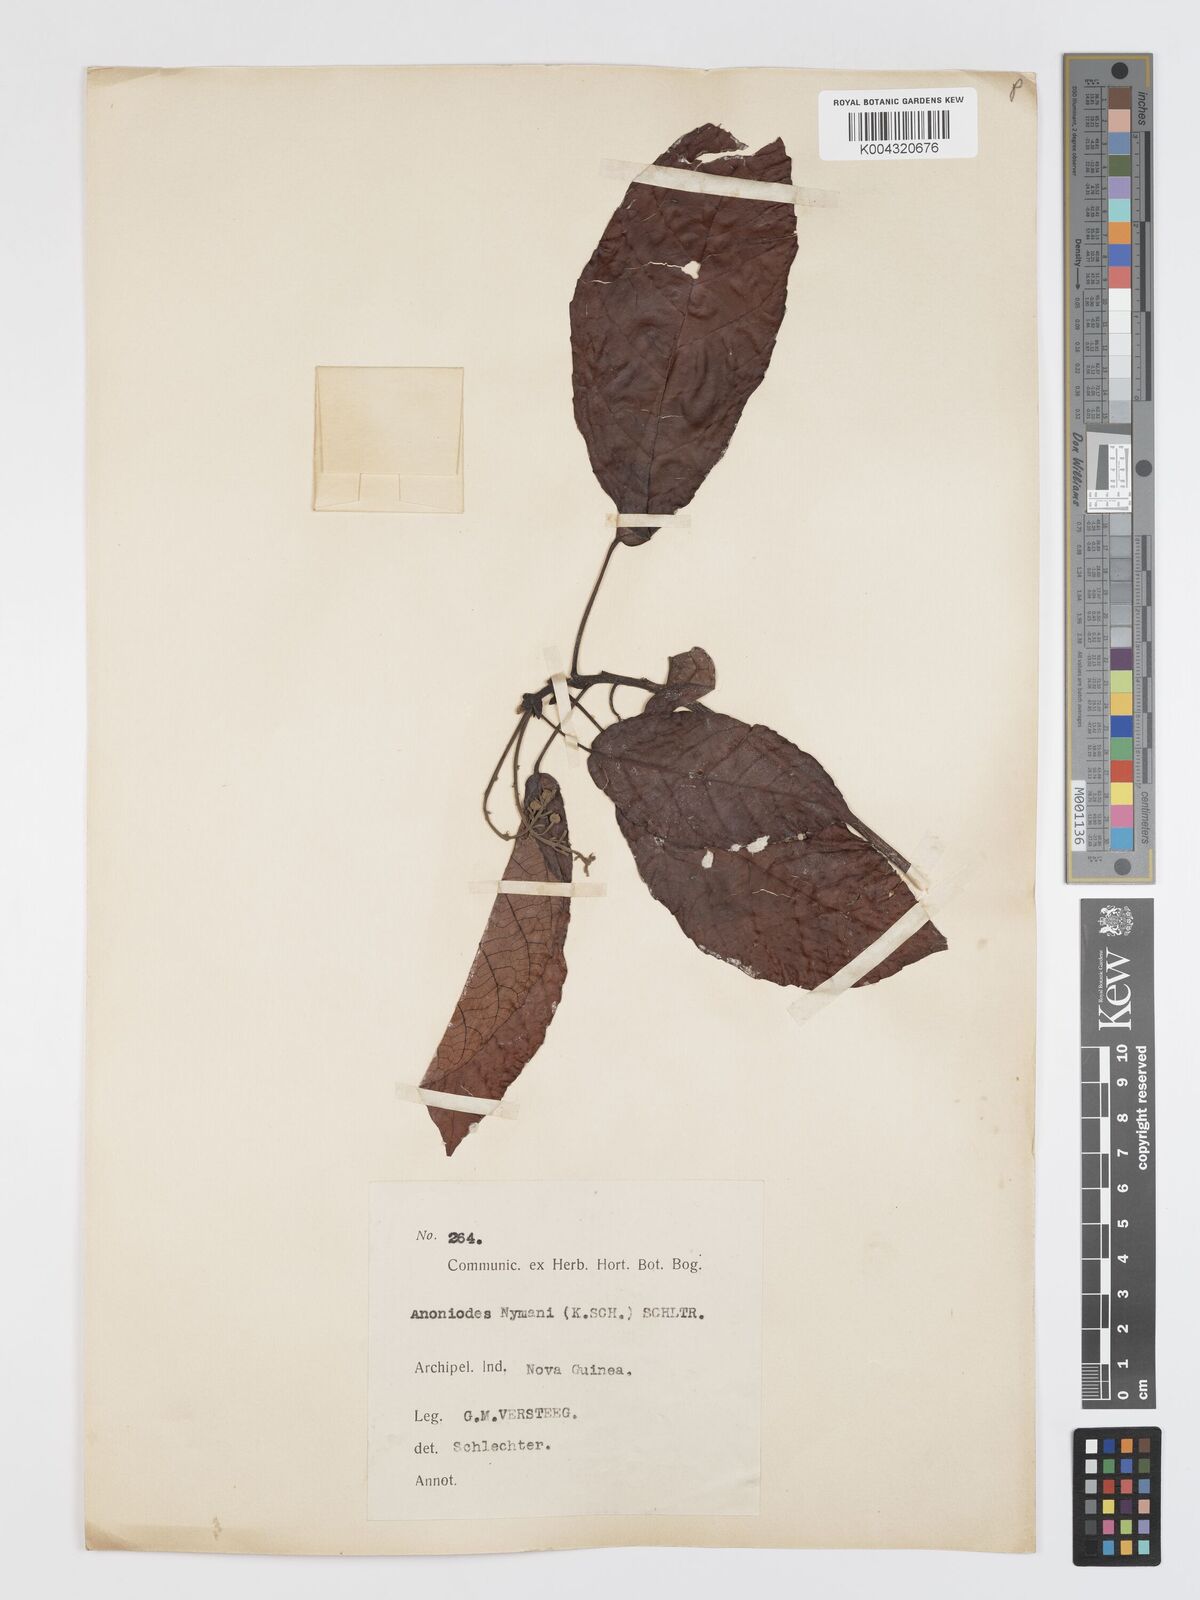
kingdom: Plantae
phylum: Tracheophyta
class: Magnoliopsida
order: Oxalidales
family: Elaeocarpaceae
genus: Sloanea
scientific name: Sloanea nymanii
